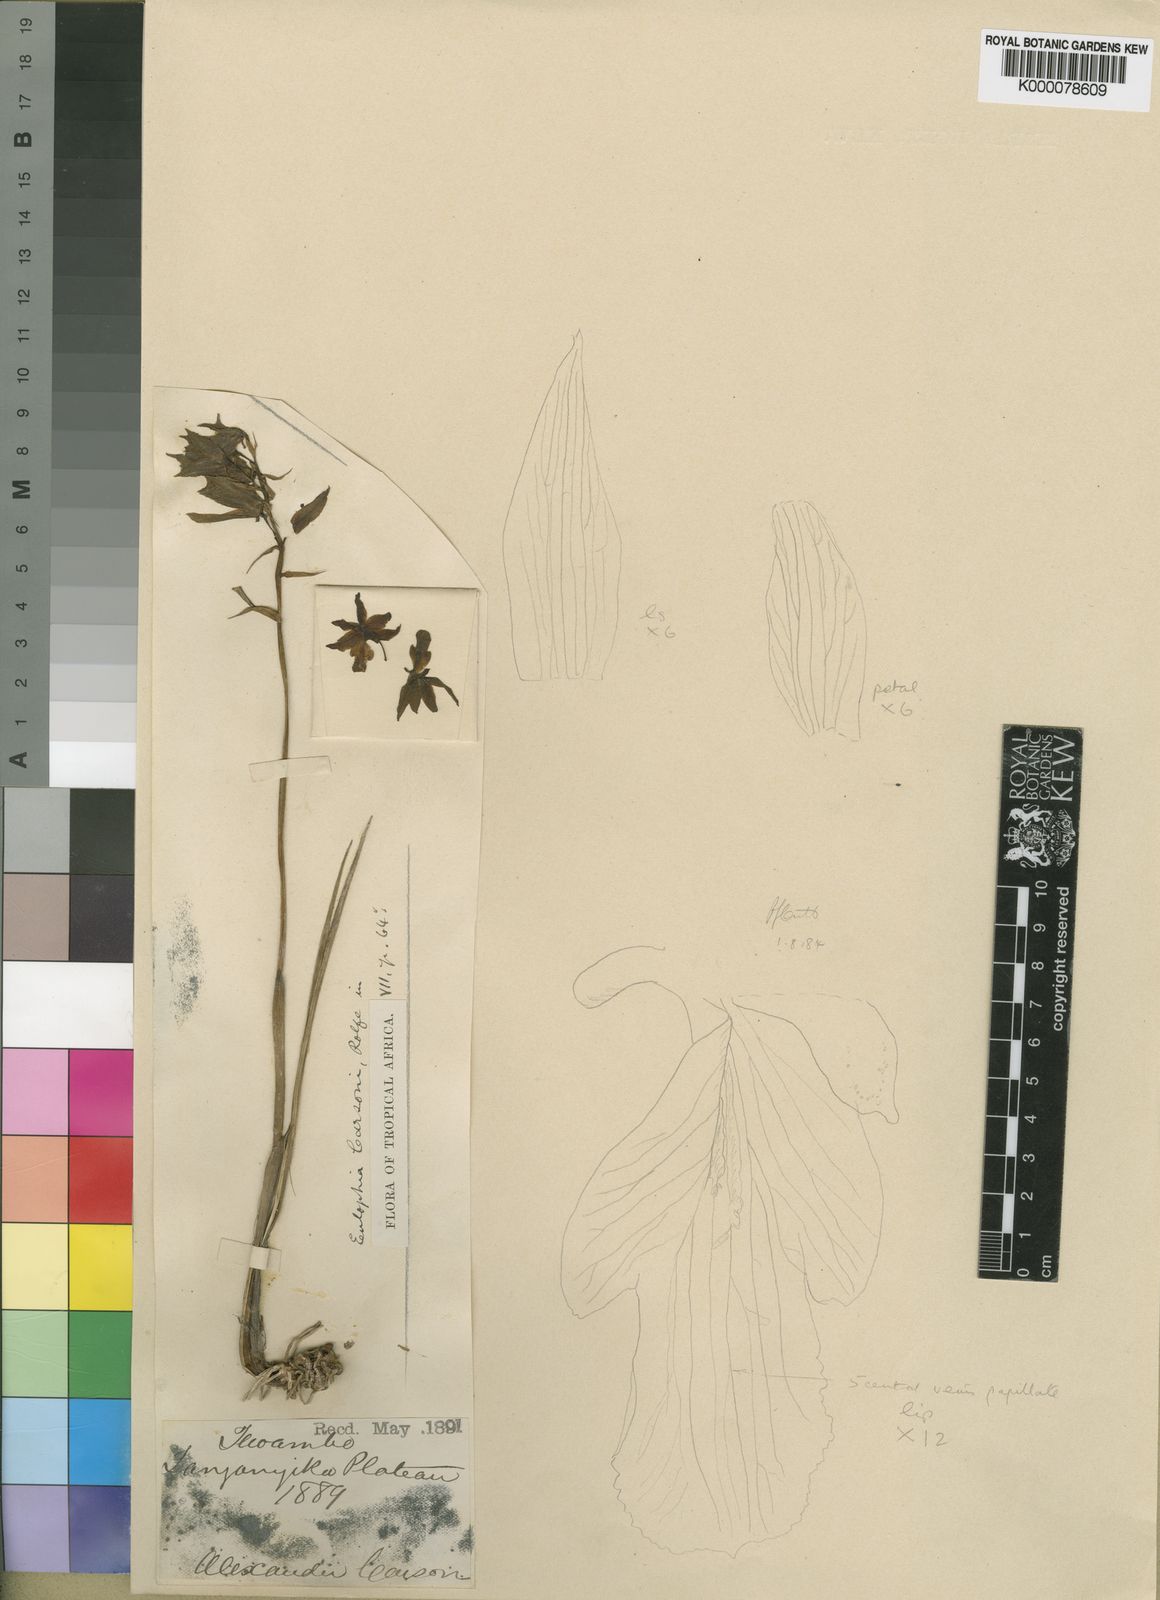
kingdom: Plantae
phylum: Tracheophyta
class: Liliopsida
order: Asparagales
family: Orchidaceae
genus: Eulophia
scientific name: Eulophia carsonii
